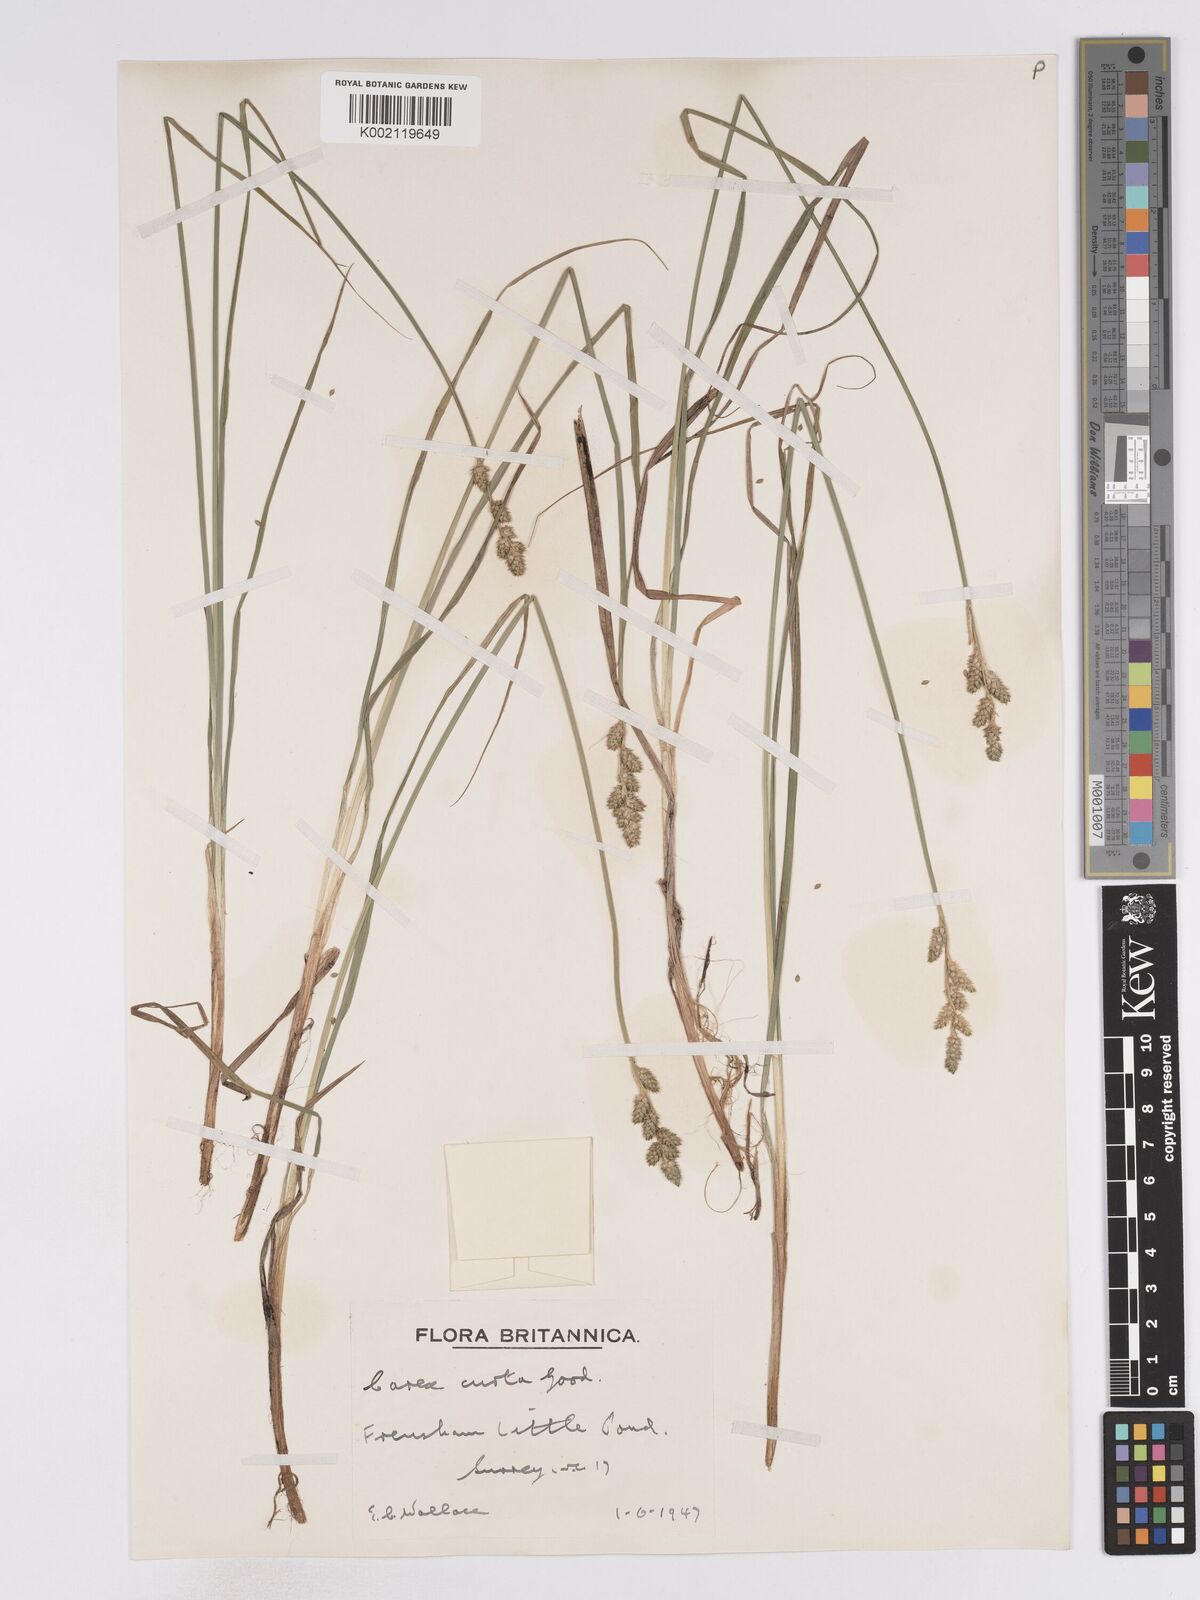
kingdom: Plantae
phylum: Tracheophyta
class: Liliopsida
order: Poales
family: Cyperaceae
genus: Carex
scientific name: Carex curta
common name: White sedge
